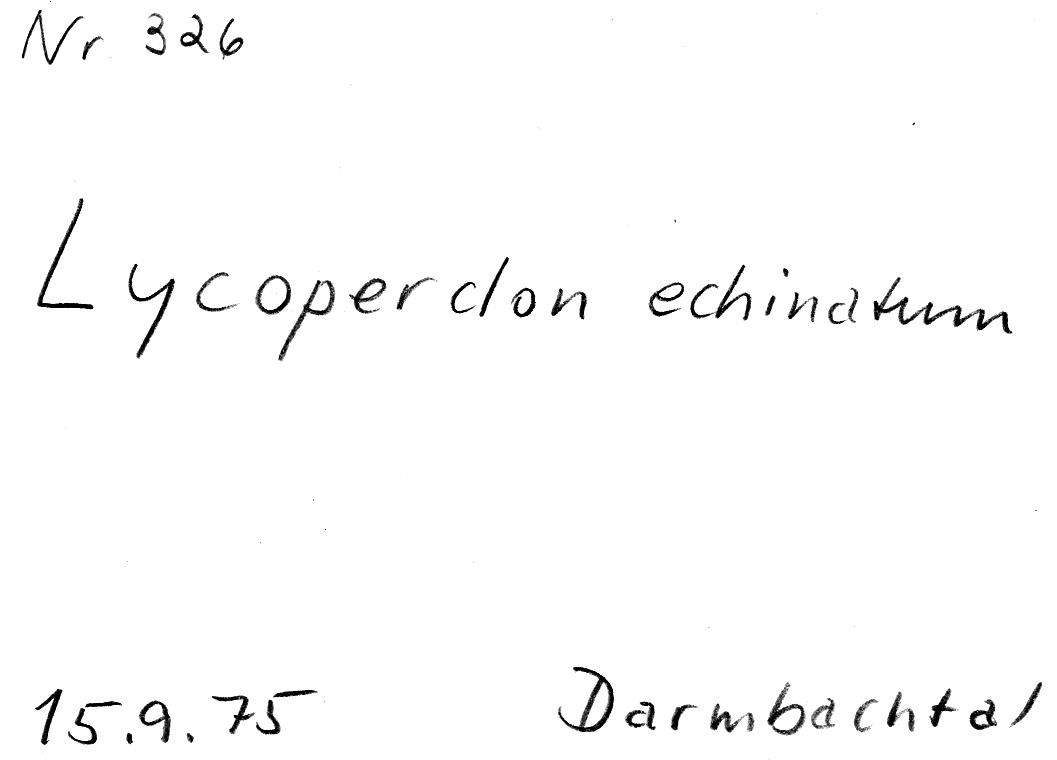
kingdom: Fungi
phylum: Basidiomycota
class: Agaricomycetes
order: Agaricales
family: Lycoperdaceae
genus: Lycoperdon
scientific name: Lycoperdon echinatum
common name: Hedgehog puffball
